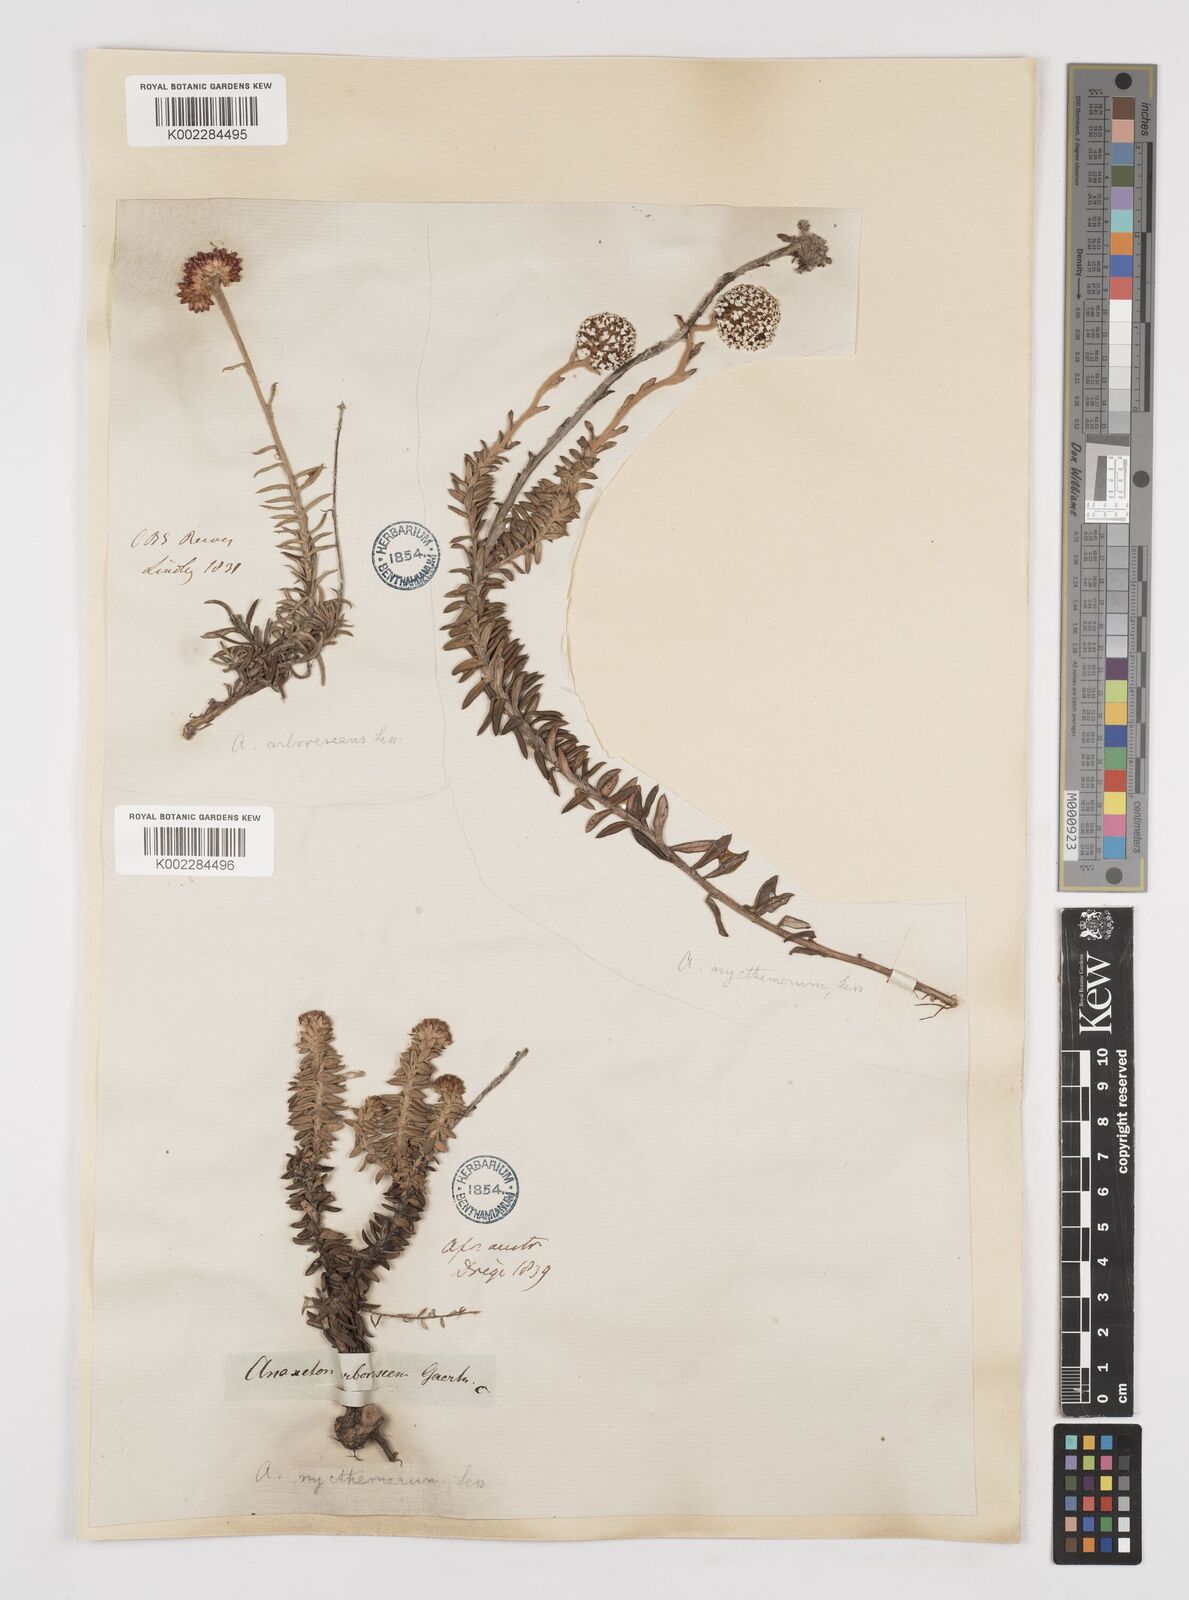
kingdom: Plantae
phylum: Tracheophyta
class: Magnoliopsida
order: Asterales
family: Asteraceae
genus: Anaxeton
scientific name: Anaxeton arborescens
